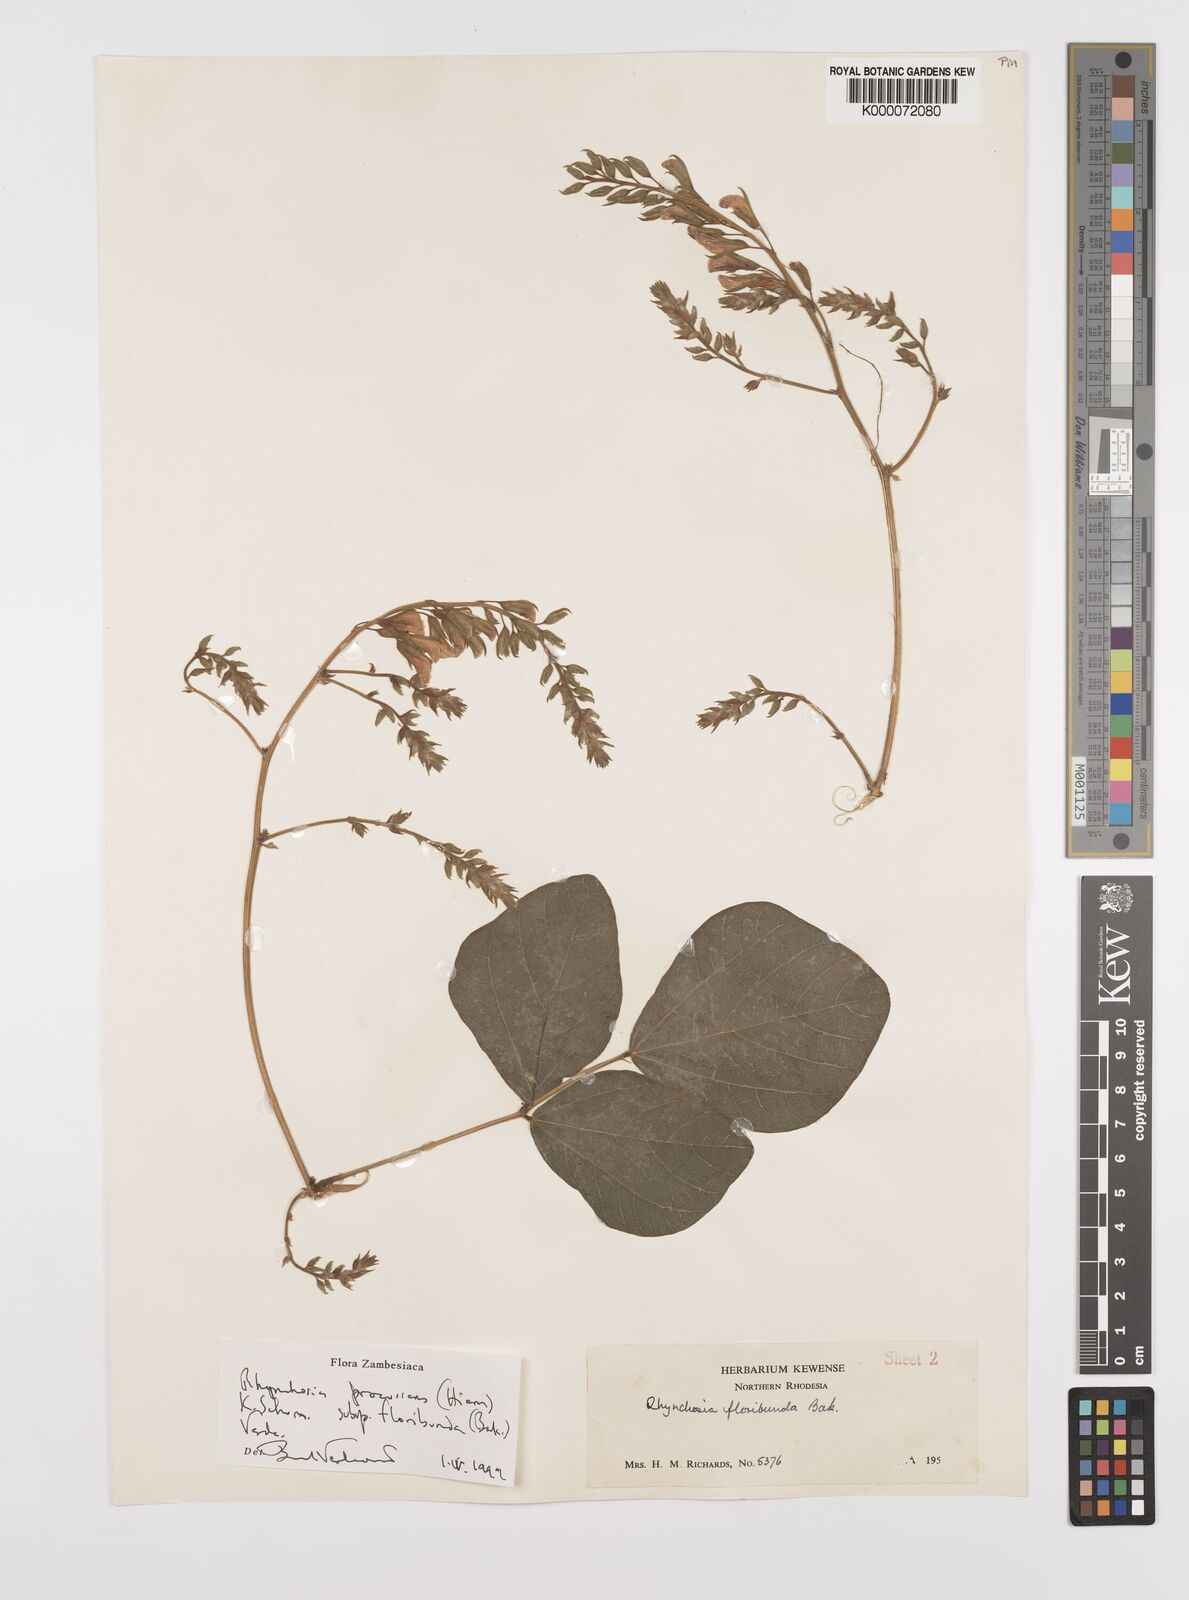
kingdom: Plantae
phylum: Tracheophyta
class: Magnoliopsida
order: Fabales
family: Fabaceae
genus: Rhynchosia
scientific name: Rhynchosia procurrens
